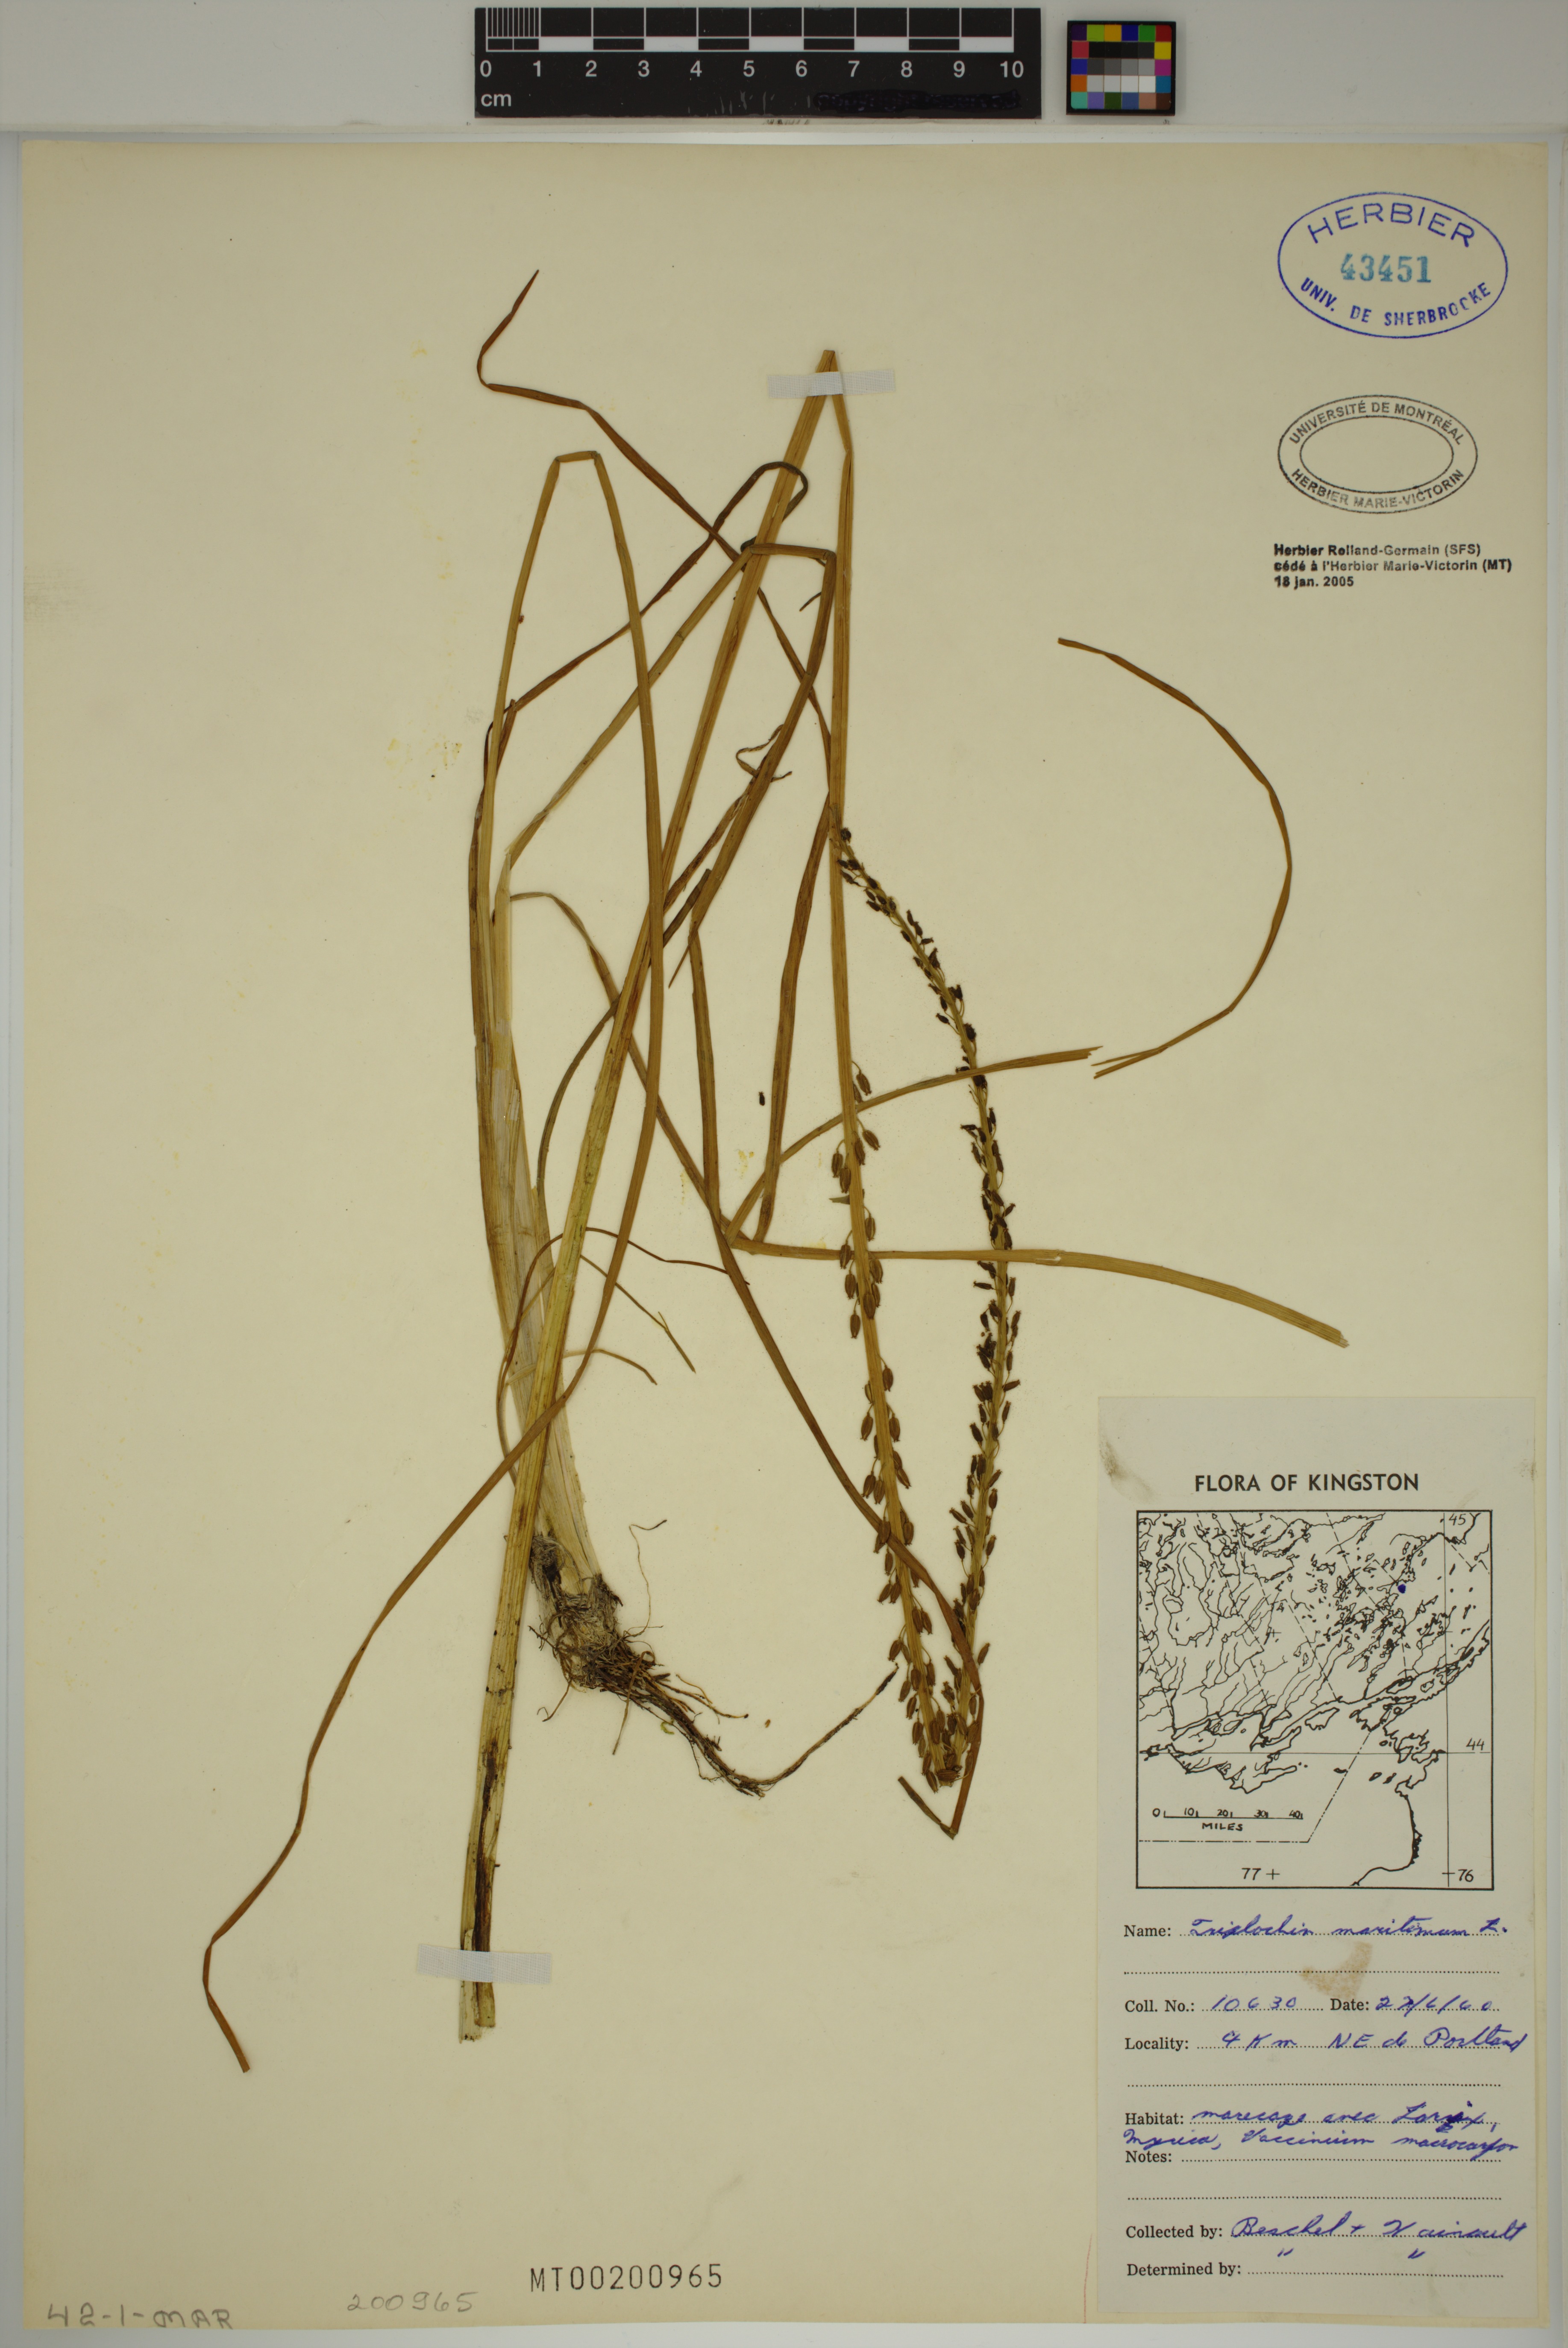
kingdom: Plantae
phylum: Tracheophyta
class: Liliopsida
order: Alismatales
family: Juncaginaceae
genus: Triglochin
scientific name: Triglochin maritima
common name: Sea arrowgrass
